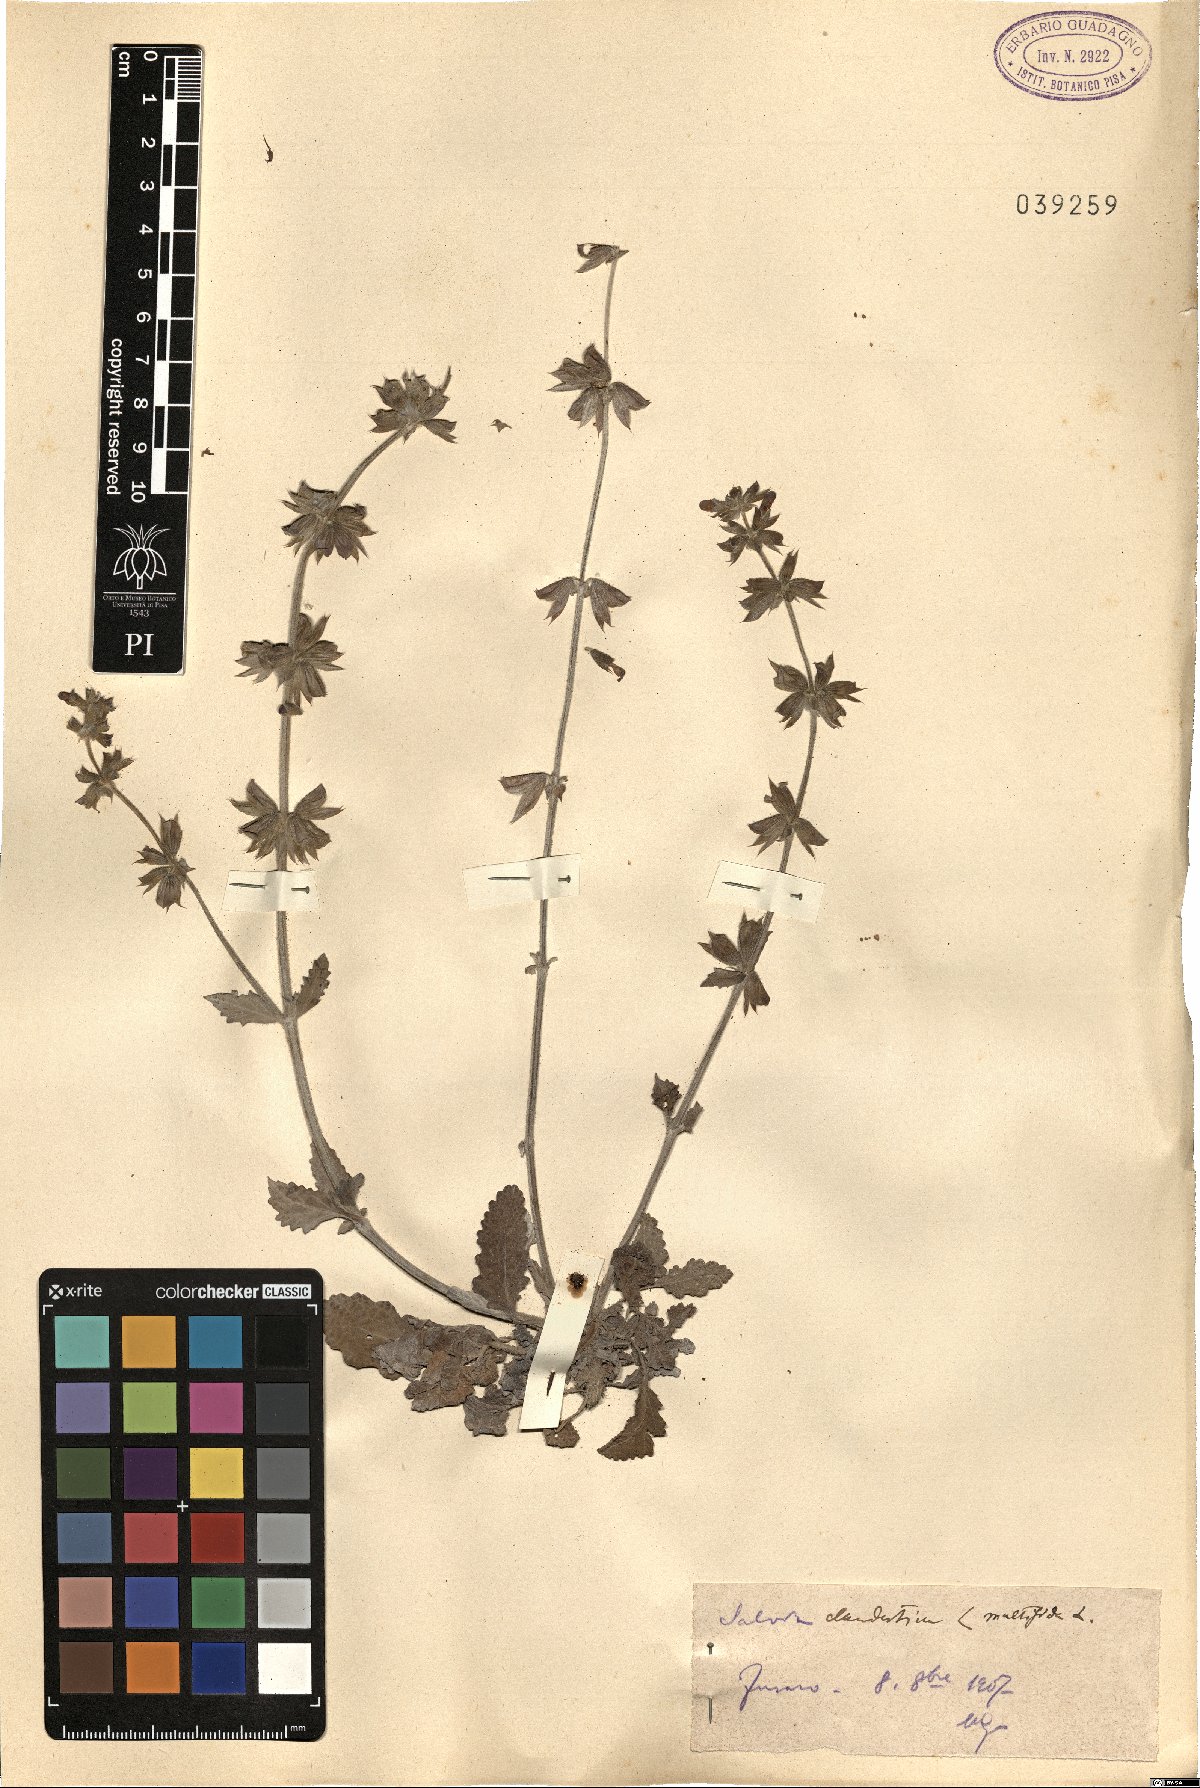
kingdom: Plantae
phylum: Tracheophyta
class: Magnoliopsida
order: Lamiales
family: Lamiaceae
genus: Salvia
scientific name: Salvia verbenaca
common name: Wild clary
